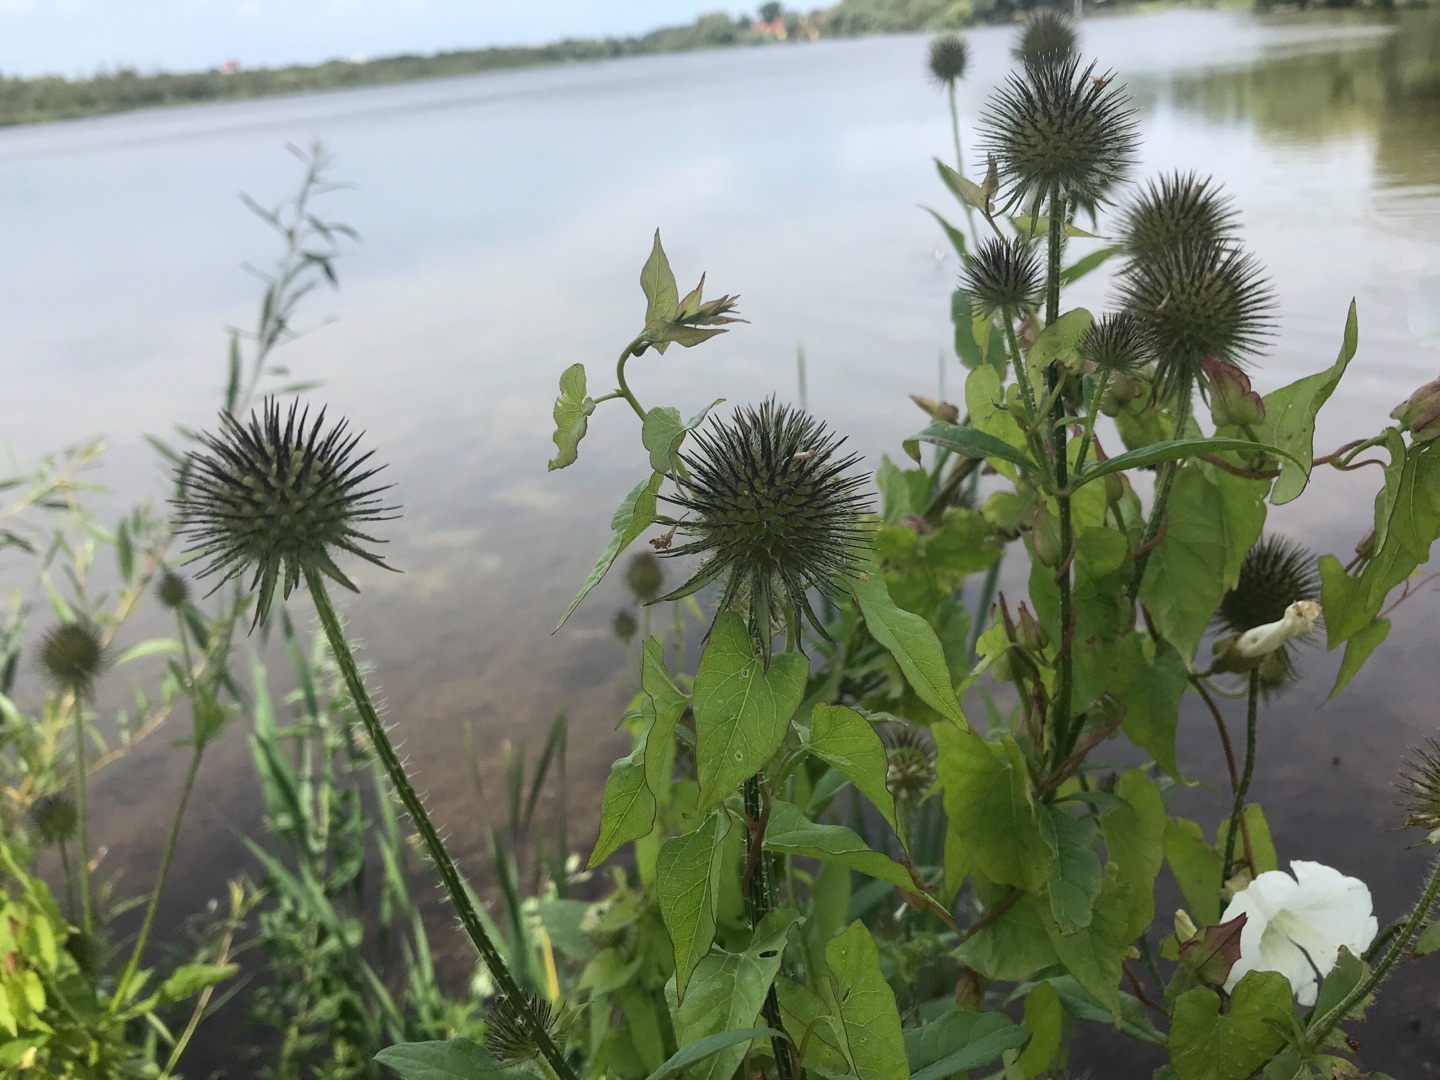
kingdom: Plantae
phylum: Tracheophyta
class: Magnoliopsida
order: Dipsacales
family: Caprifoliaceae
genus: Dipsacus
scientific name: Dipsacus strigosus
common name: Pindsvin-kartebolle
